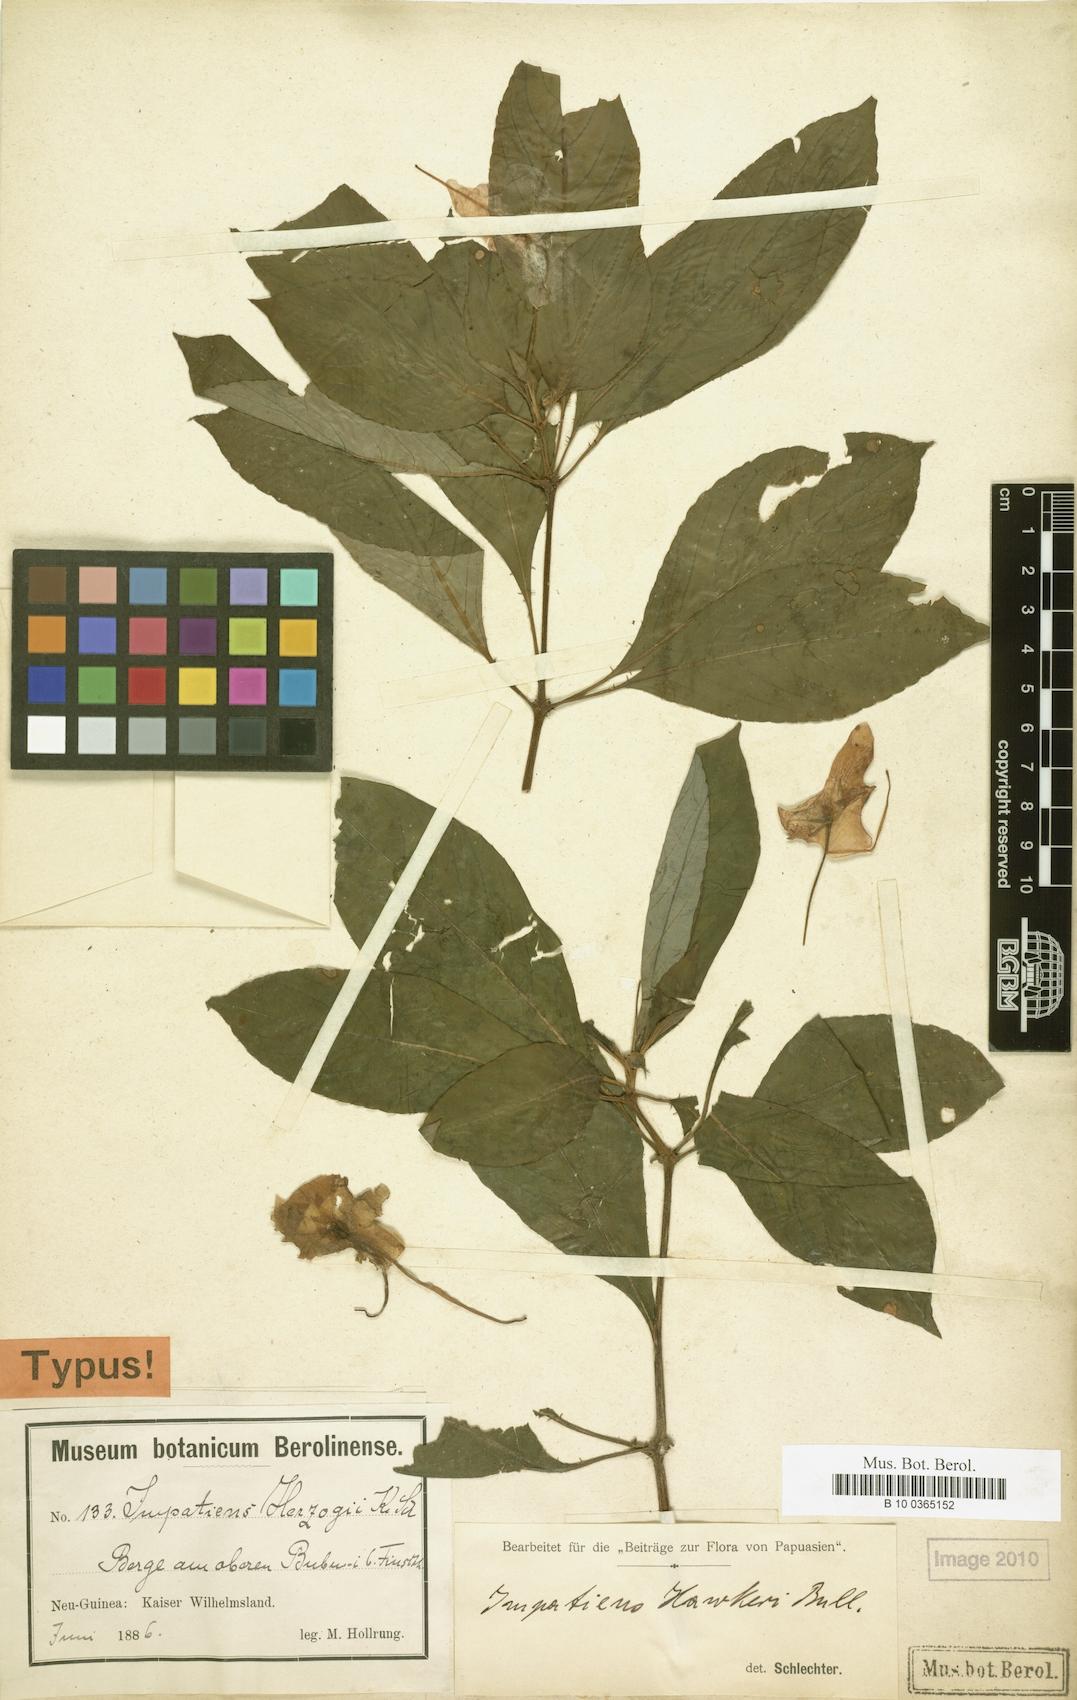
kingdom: Plantae
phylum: Tracheophyta
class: Magnoliopsida
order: Ericales
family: Balsaminaceae
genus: Impatiens
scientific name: Impatiens hawkeri
